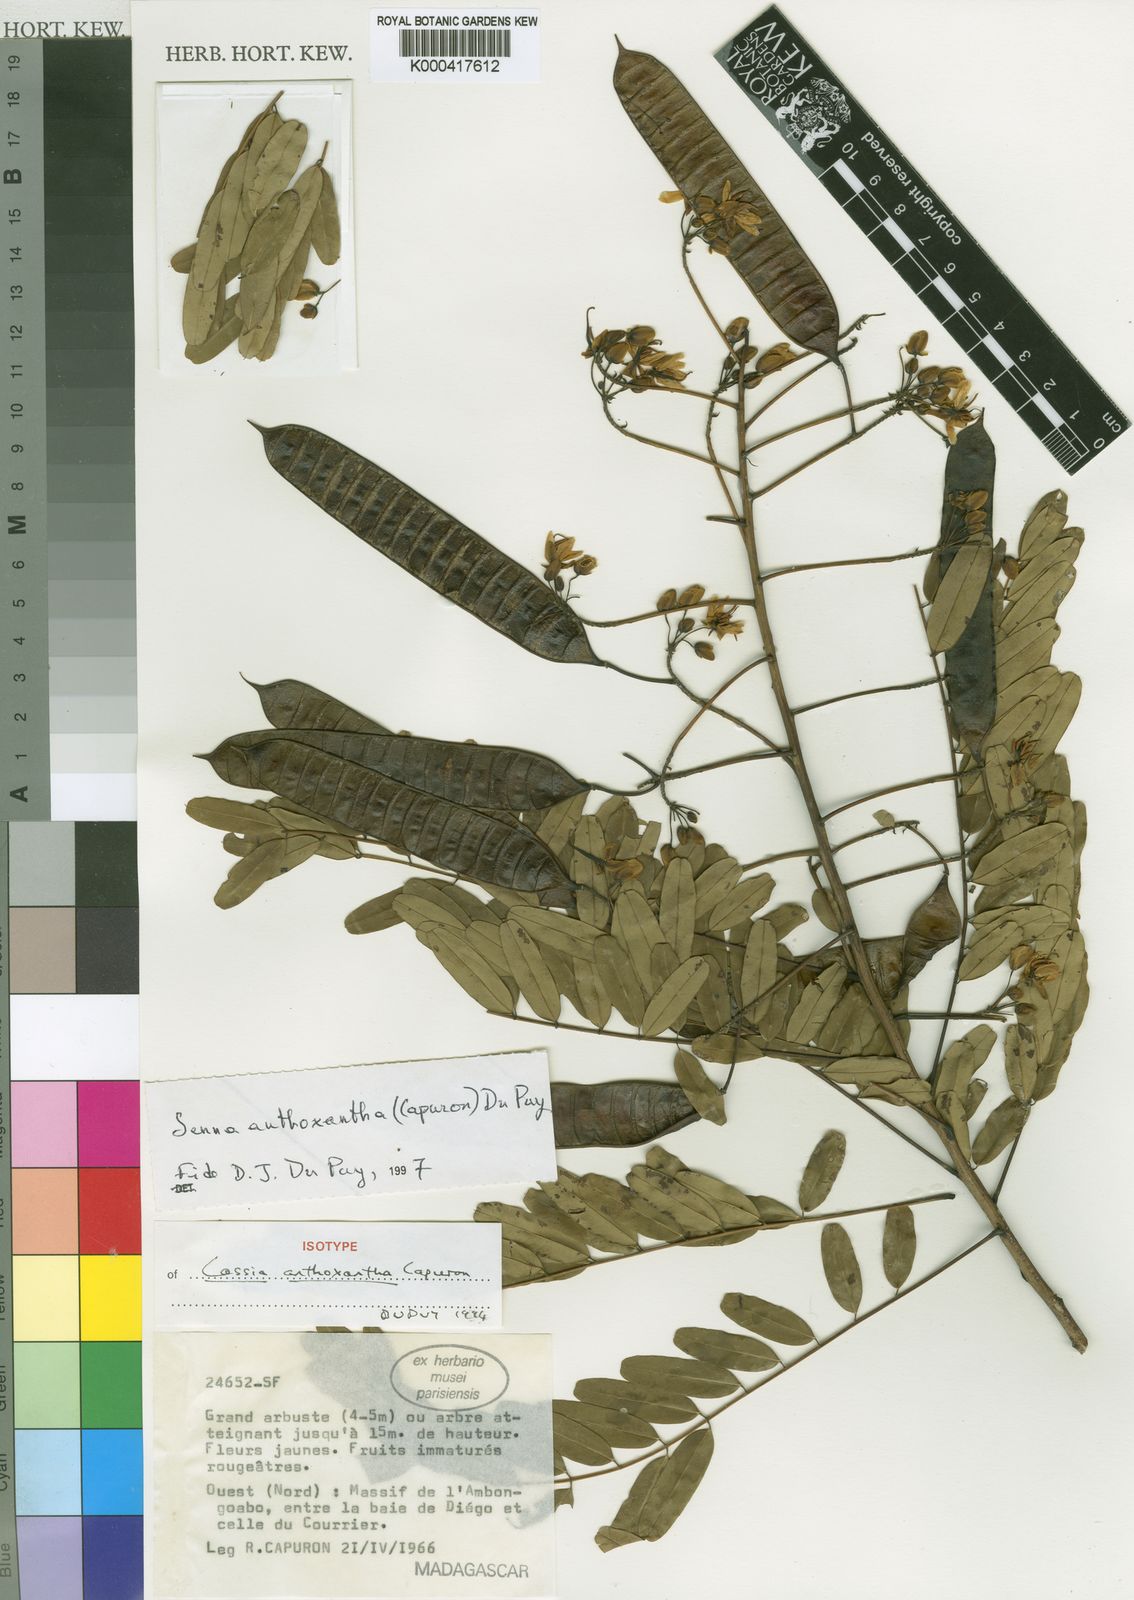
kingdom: Plantae
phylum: Tracheophyta
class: Magnoliopsida
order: Fabales
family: Fabaceae
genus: Senna
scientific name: Senna anthoxantha
